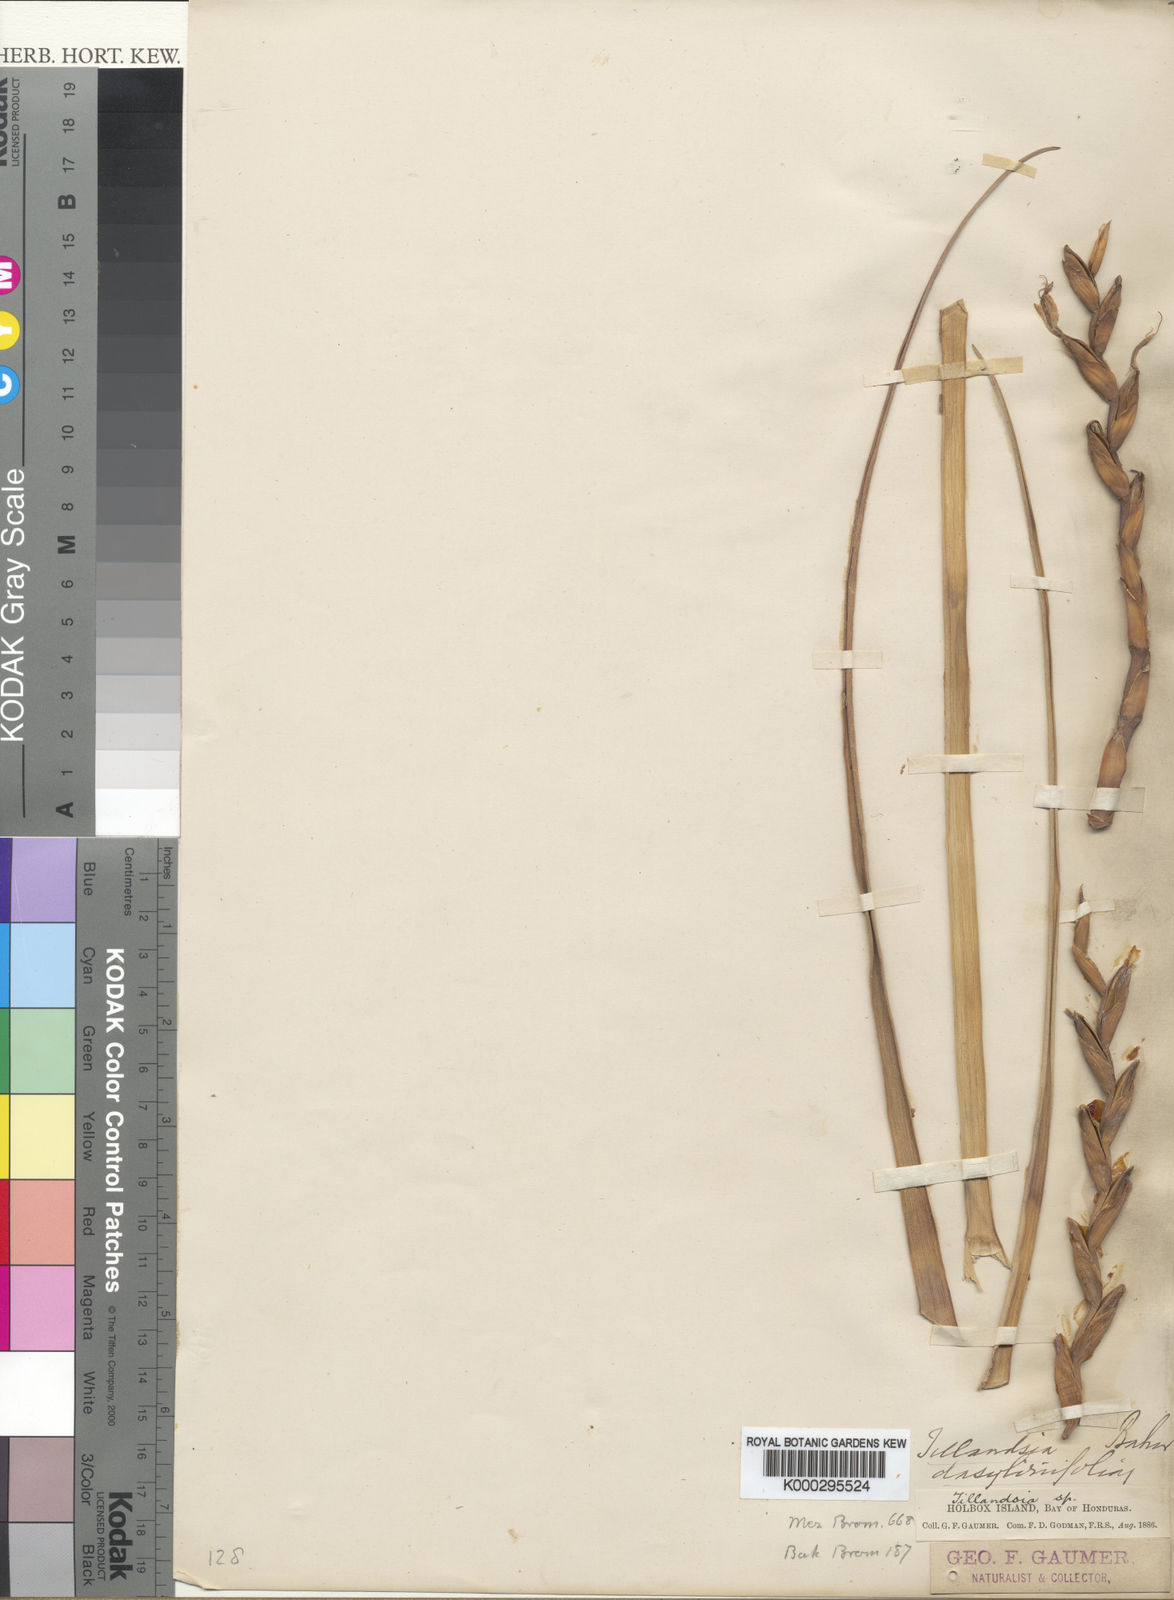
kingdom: Plantae
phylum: Tracheophyta
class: Liliopsida
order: Poales
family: Bromeliaceae
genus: Tillandsia
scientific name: Tillandsia dasyliriifolia
